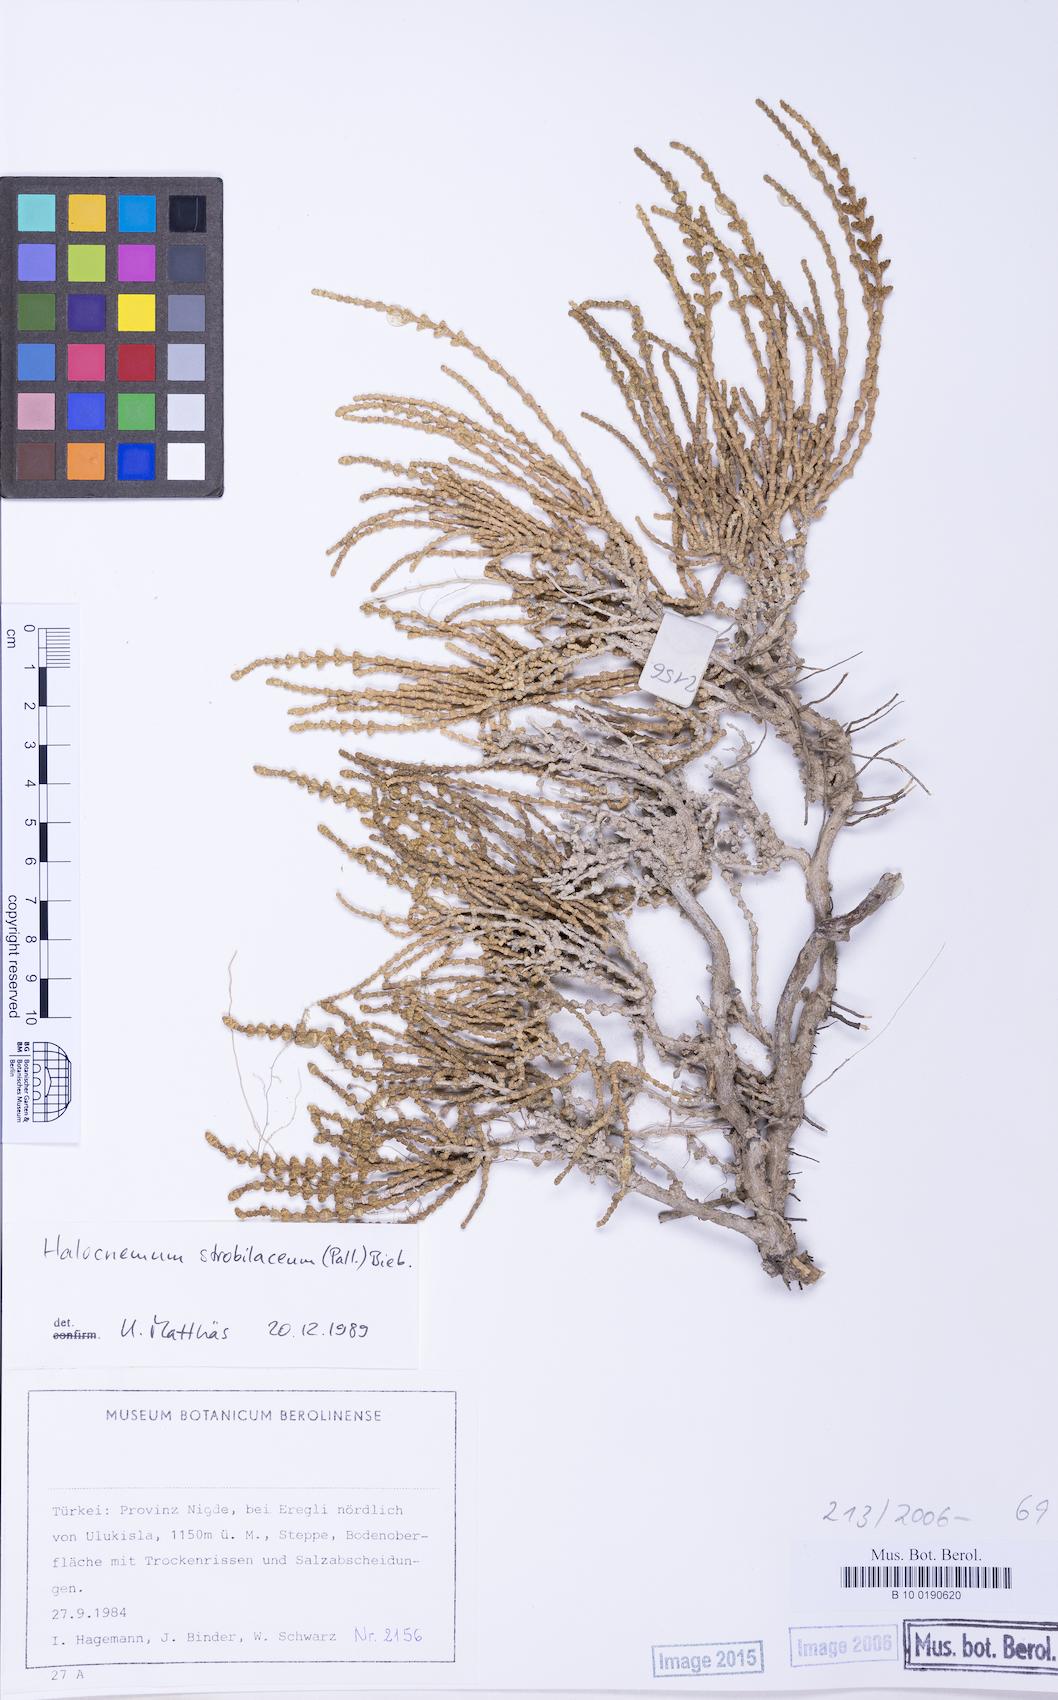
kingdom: Plantae
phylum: Tracheophyta
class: Magnoliopsida
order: Caryophyllales
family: Amaranthaceae
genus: Halocnemum
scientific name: Halocnemum strobilaceum
